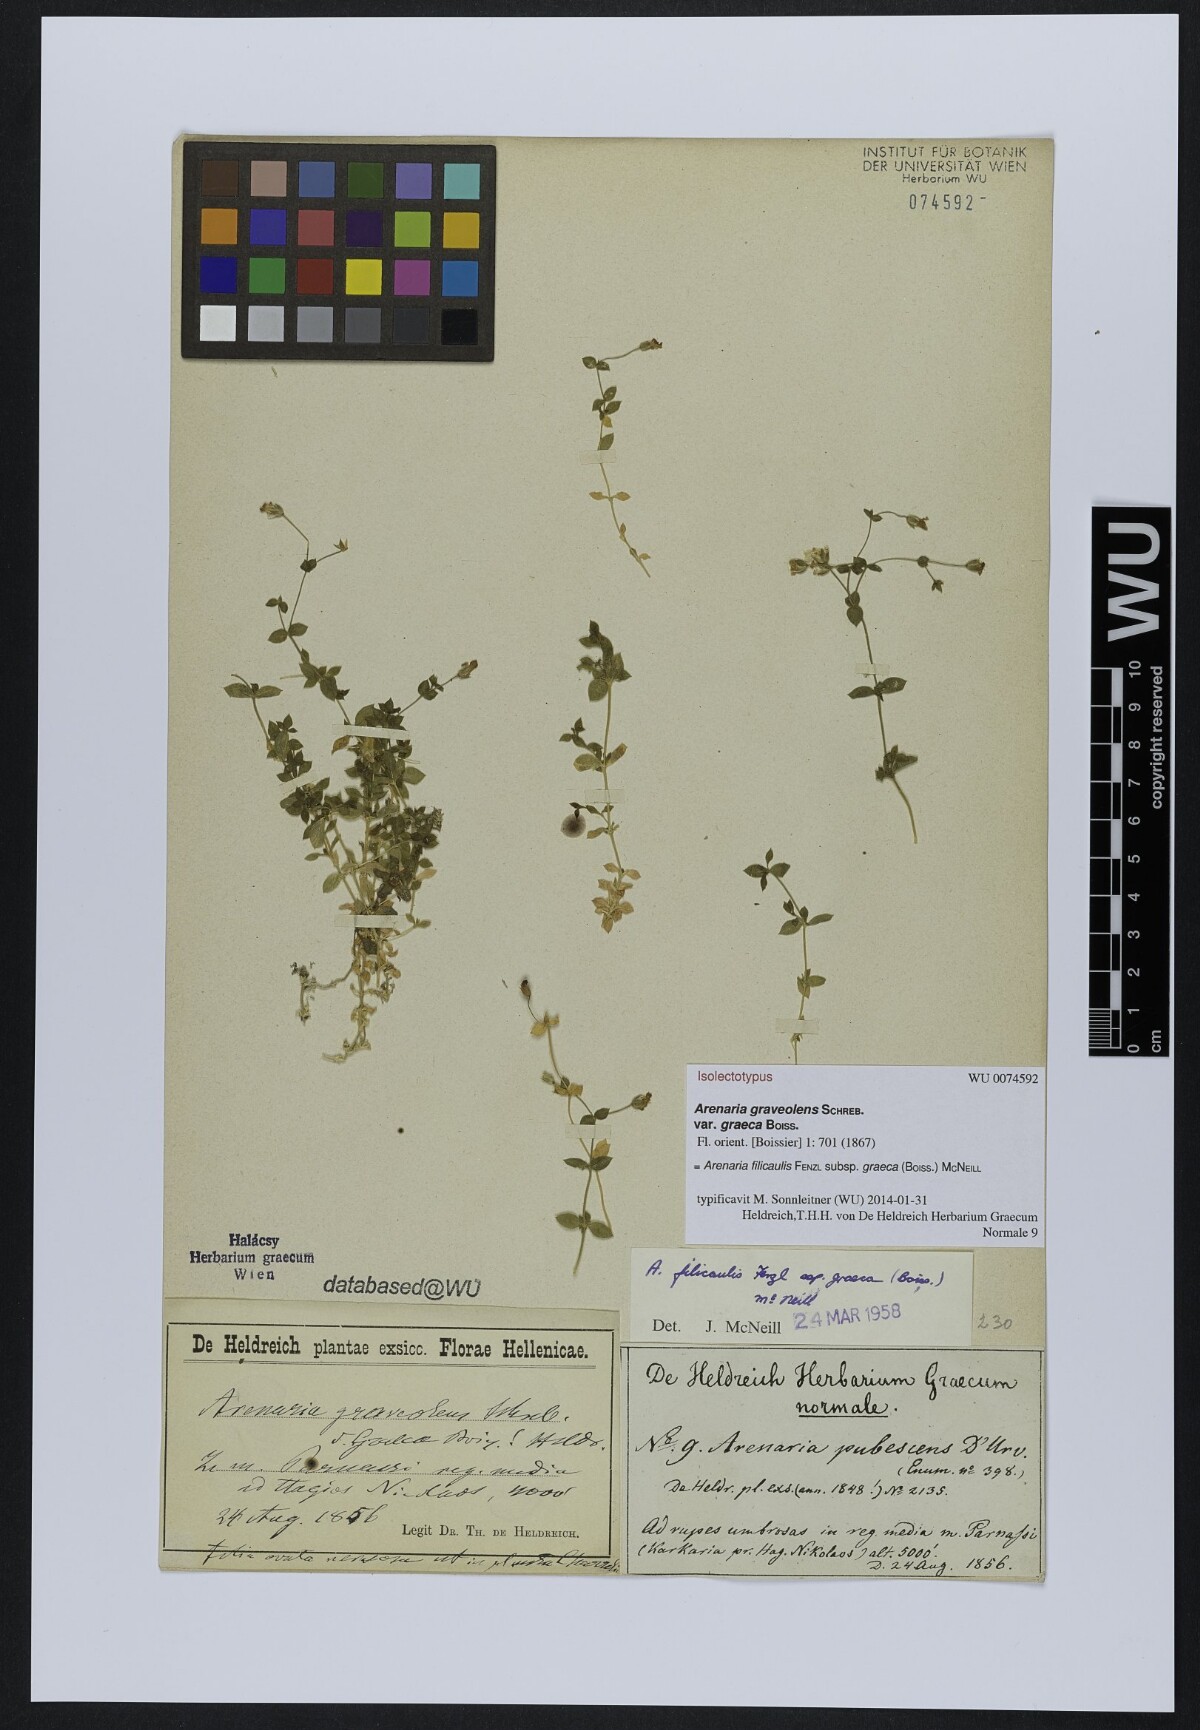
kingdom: Plantae
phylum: Tracheophyta
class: Magnoliopsida
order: Caryophyllales
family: Caryophyllaceae
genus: Arenaria
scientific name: Arenaria filicaulis
